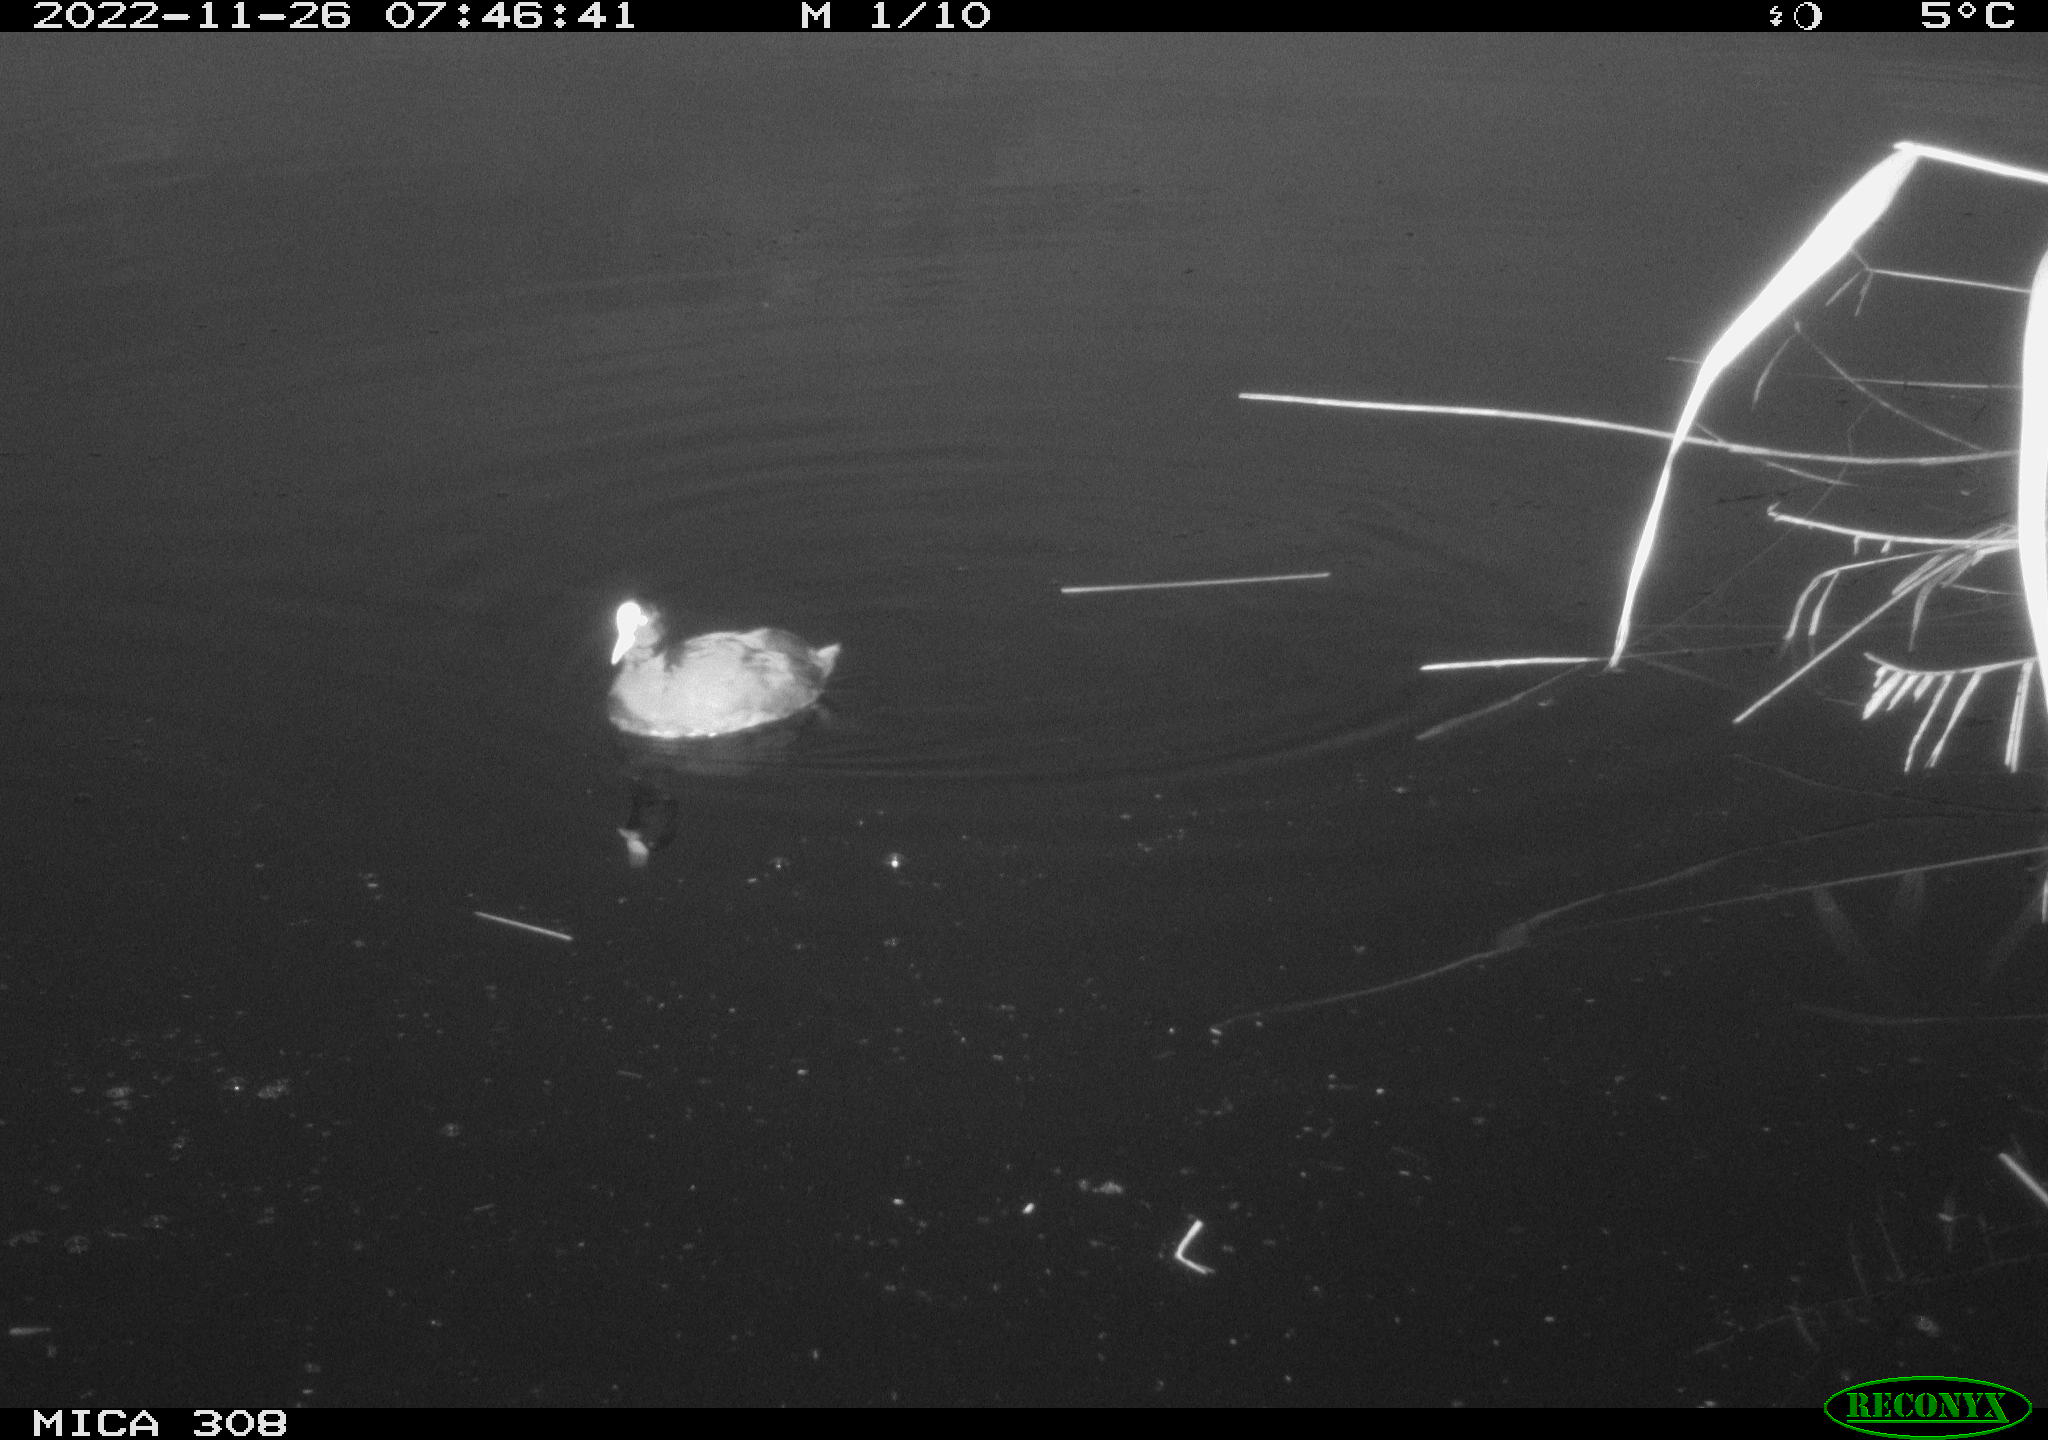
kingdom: Animalia
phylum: Chordata
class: Aves
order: Gruiformes
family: Rallidae
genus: Fulica
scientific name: Fulica atra
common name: Eurasian coot
